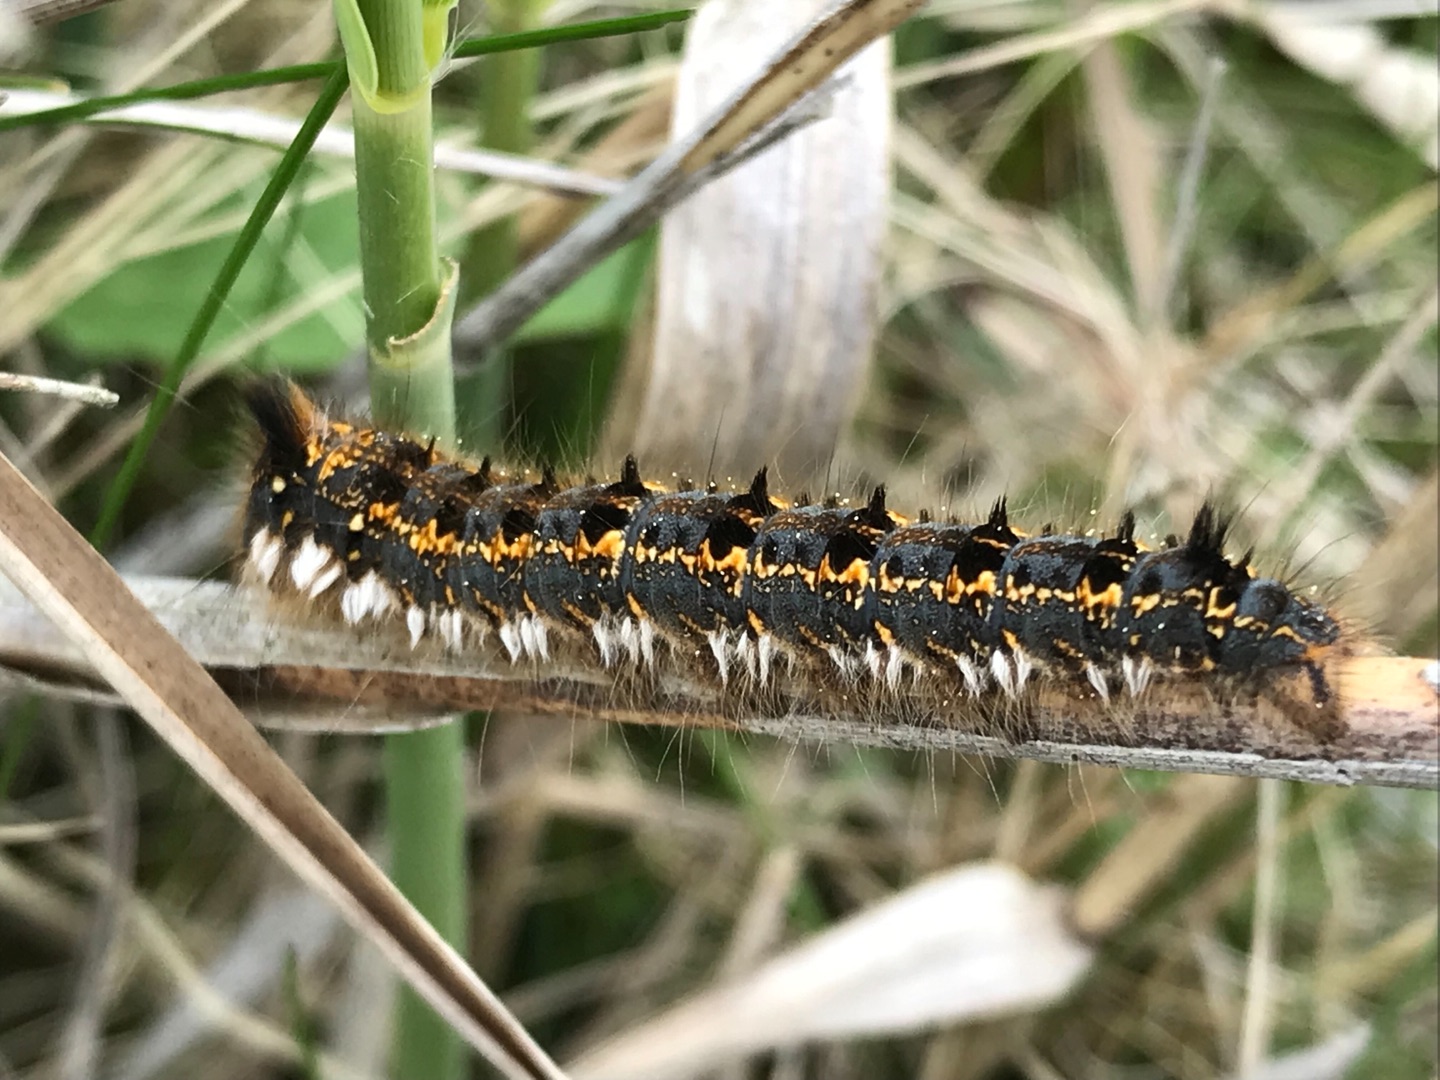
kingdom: Animalia
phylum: Arthropoda
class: Insecta
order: Lepidoptera
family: Lasiocampidae
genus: Euthrix
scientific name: Euthrix potatoria
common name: Græsspinder
